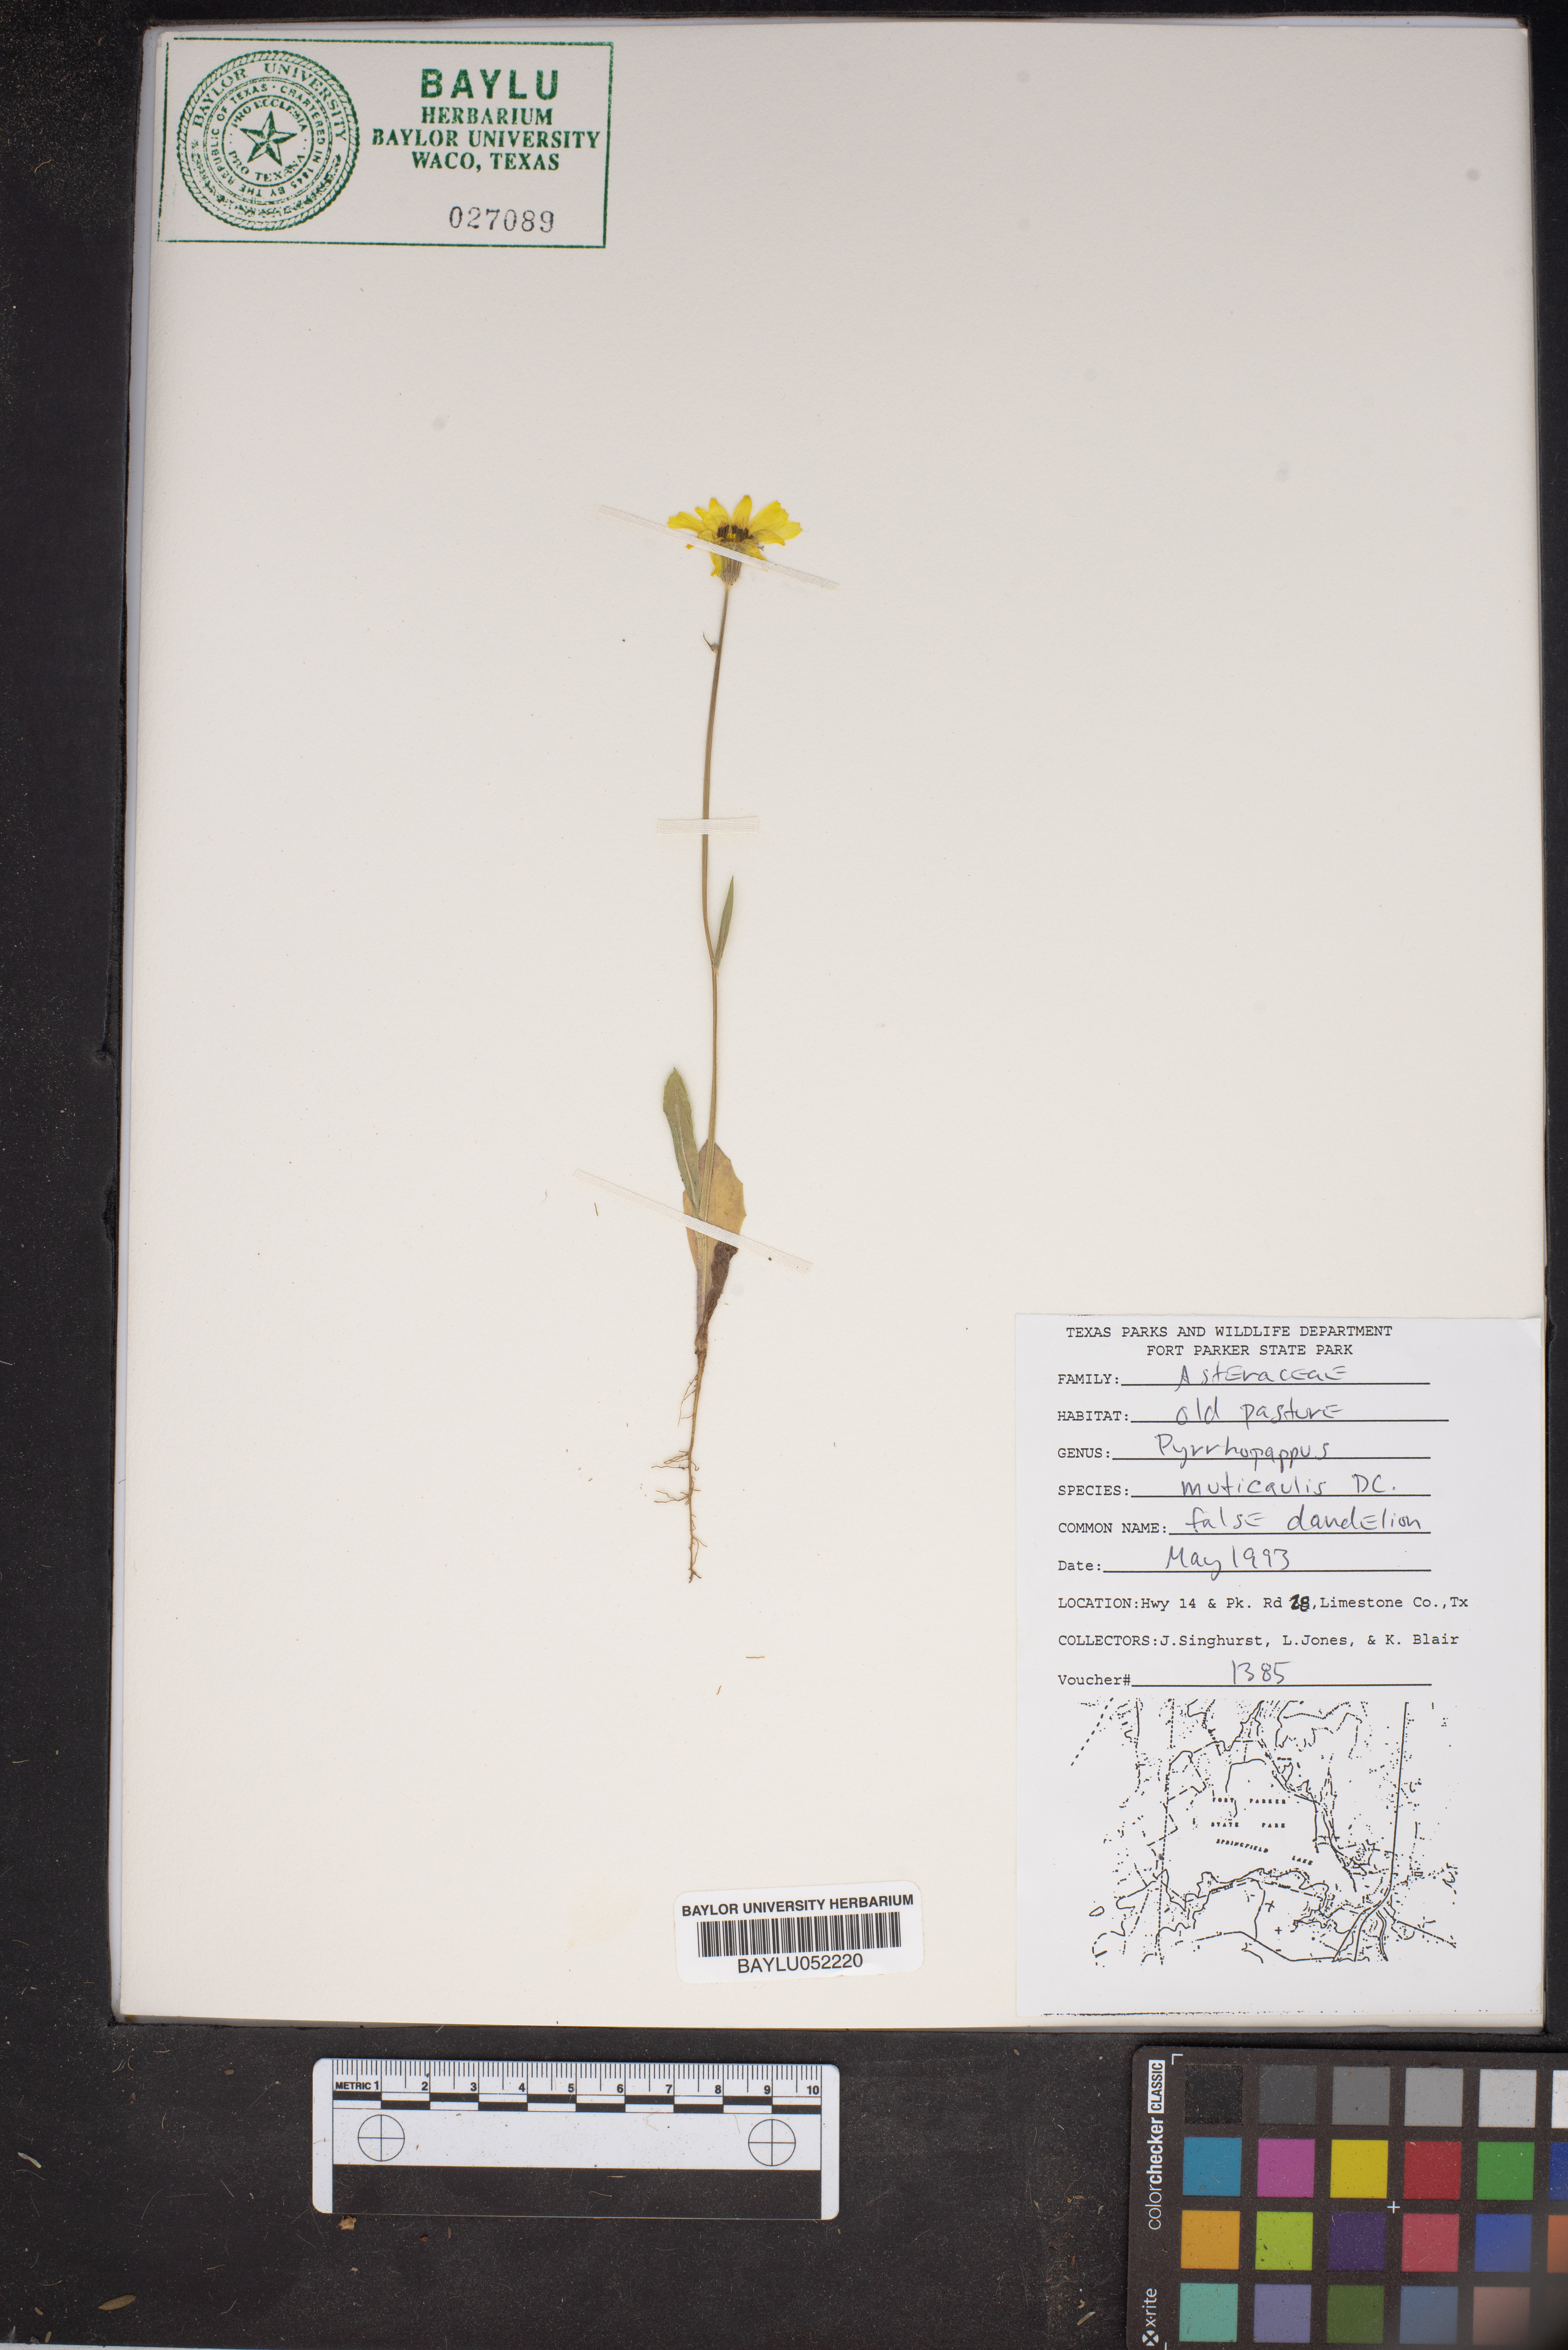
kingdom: Plantae
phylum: Tracheophyta
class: Magnoliopsida
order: Asterales
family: Asteraceae
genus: Pyrrhopappus
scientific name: Pyrrhopappus pauciflorus
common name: Texas false dandelion
